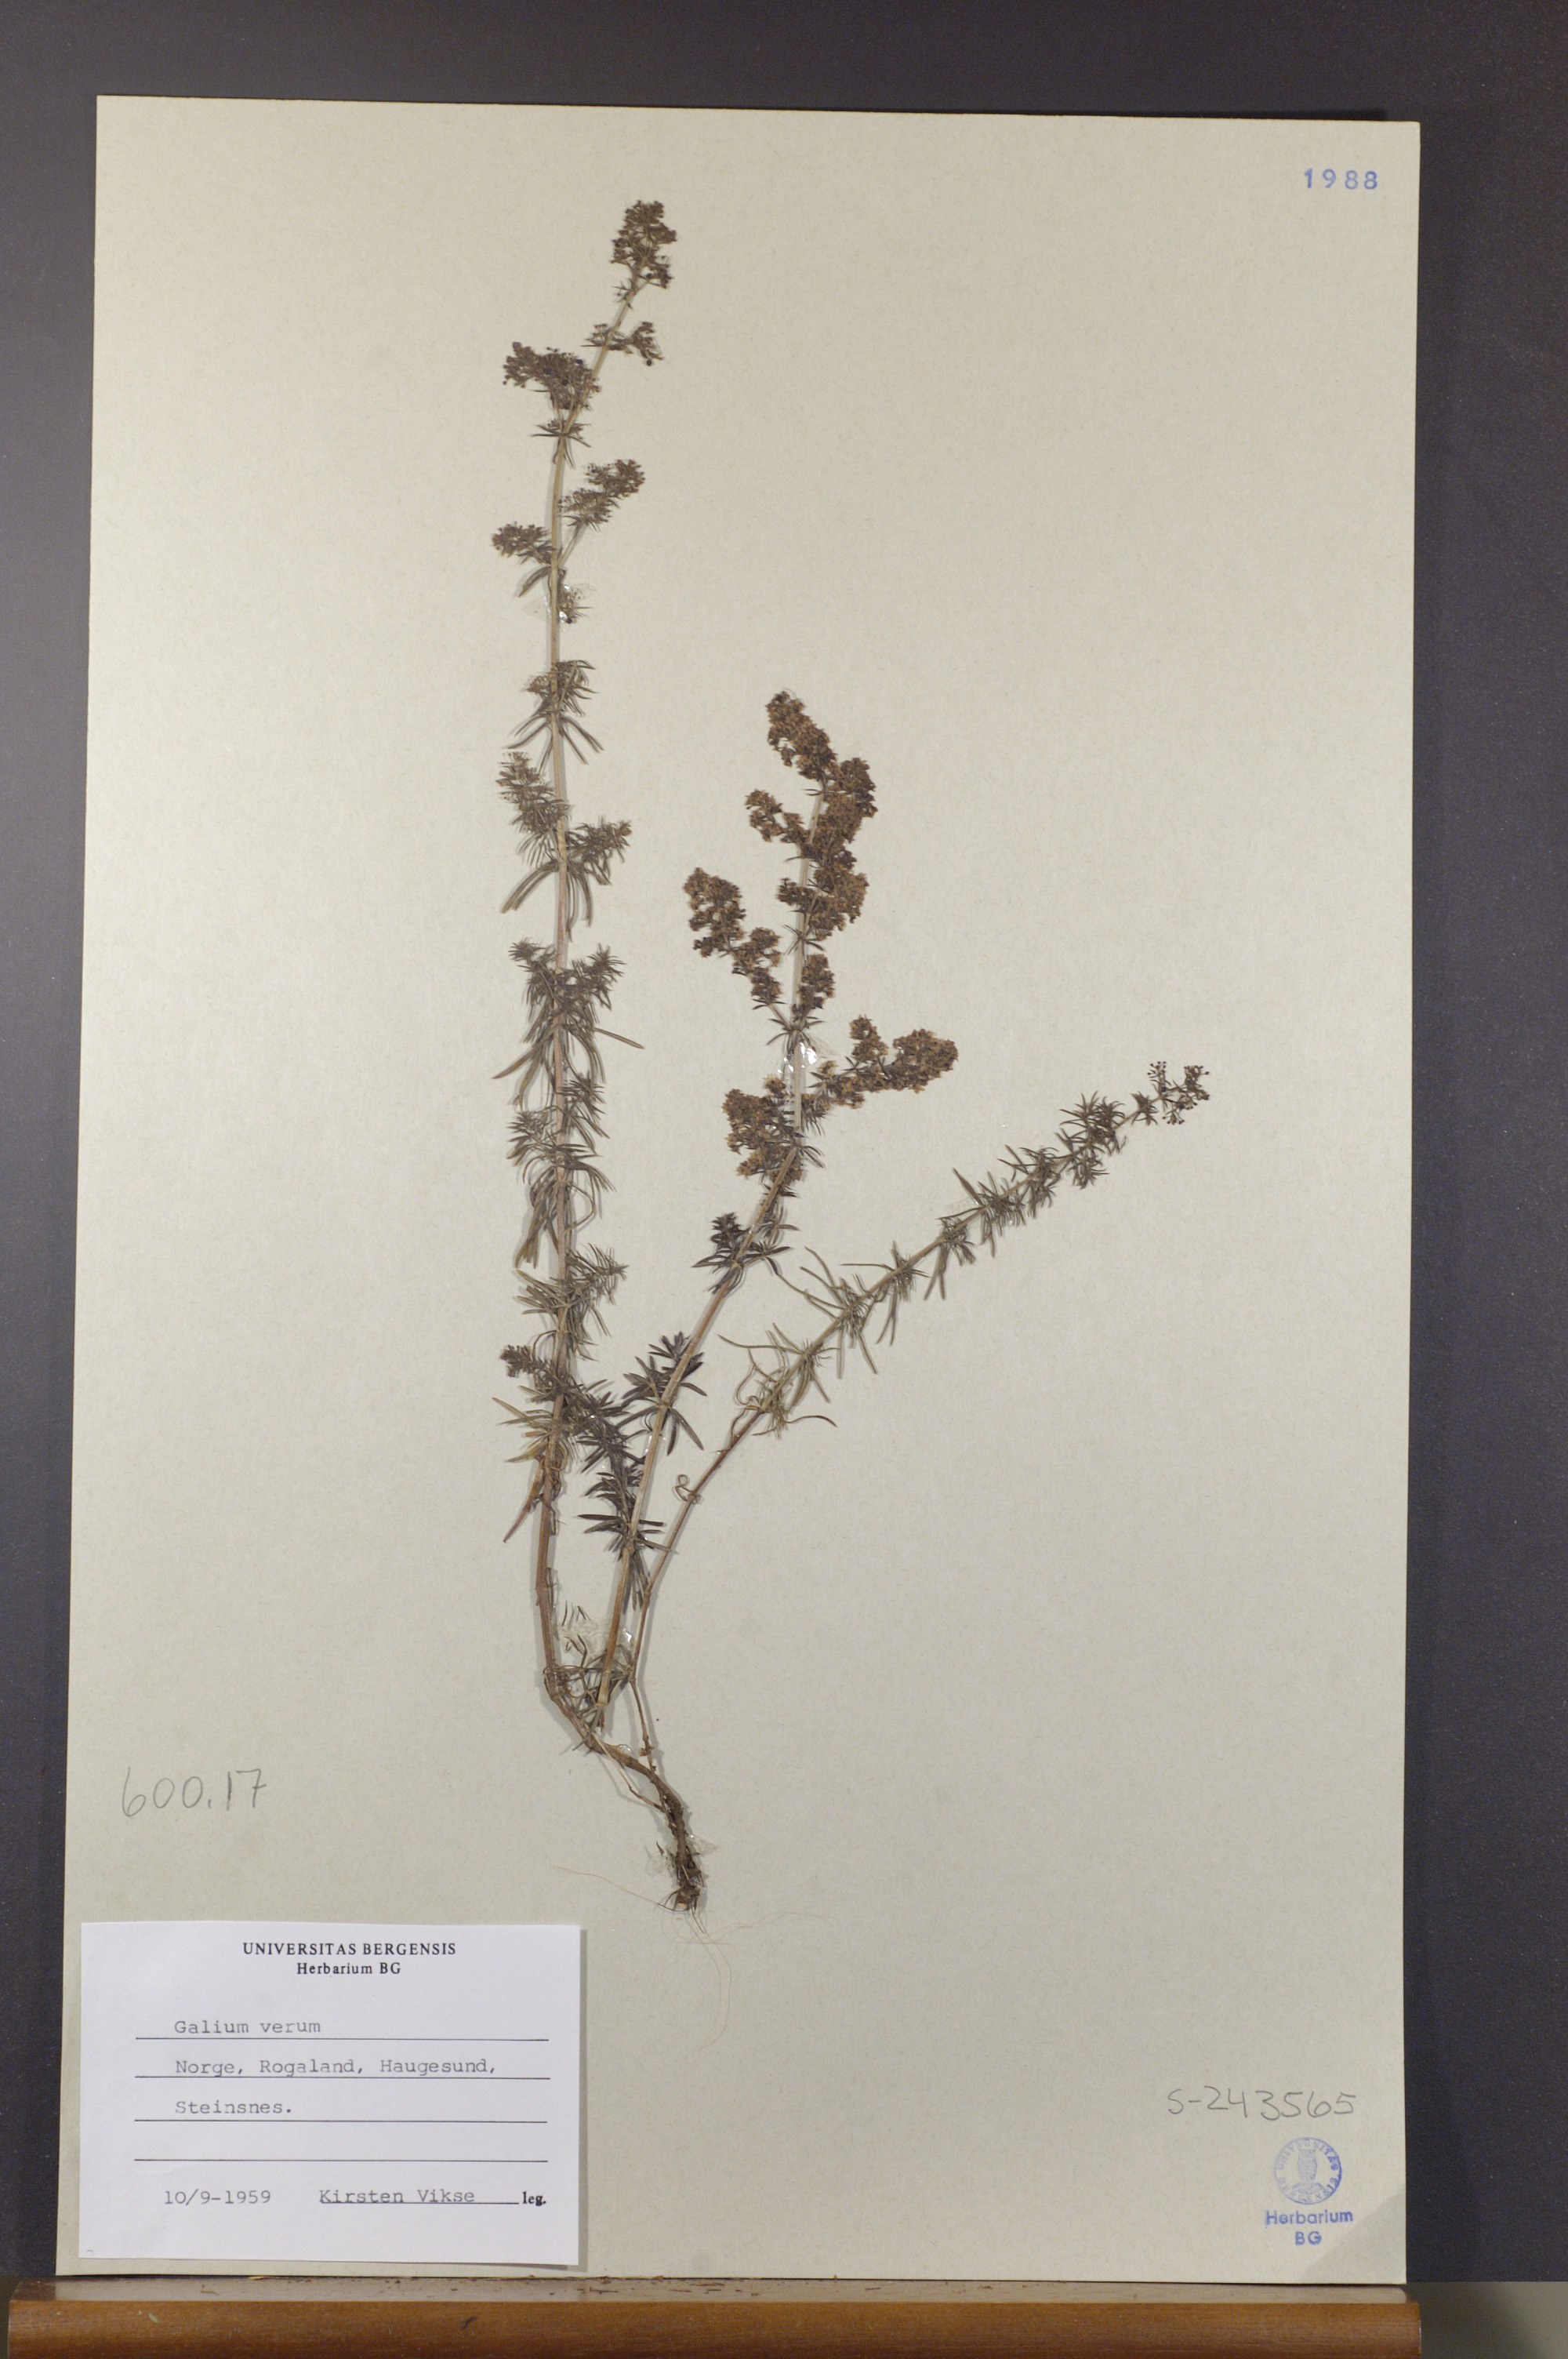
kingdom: Plantae
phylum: Tracheophyta
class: Magnoliopsida
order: Gentianales
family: Rubiaceae
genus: Galium
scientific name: Galium verum
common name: Lady's bedstraw
